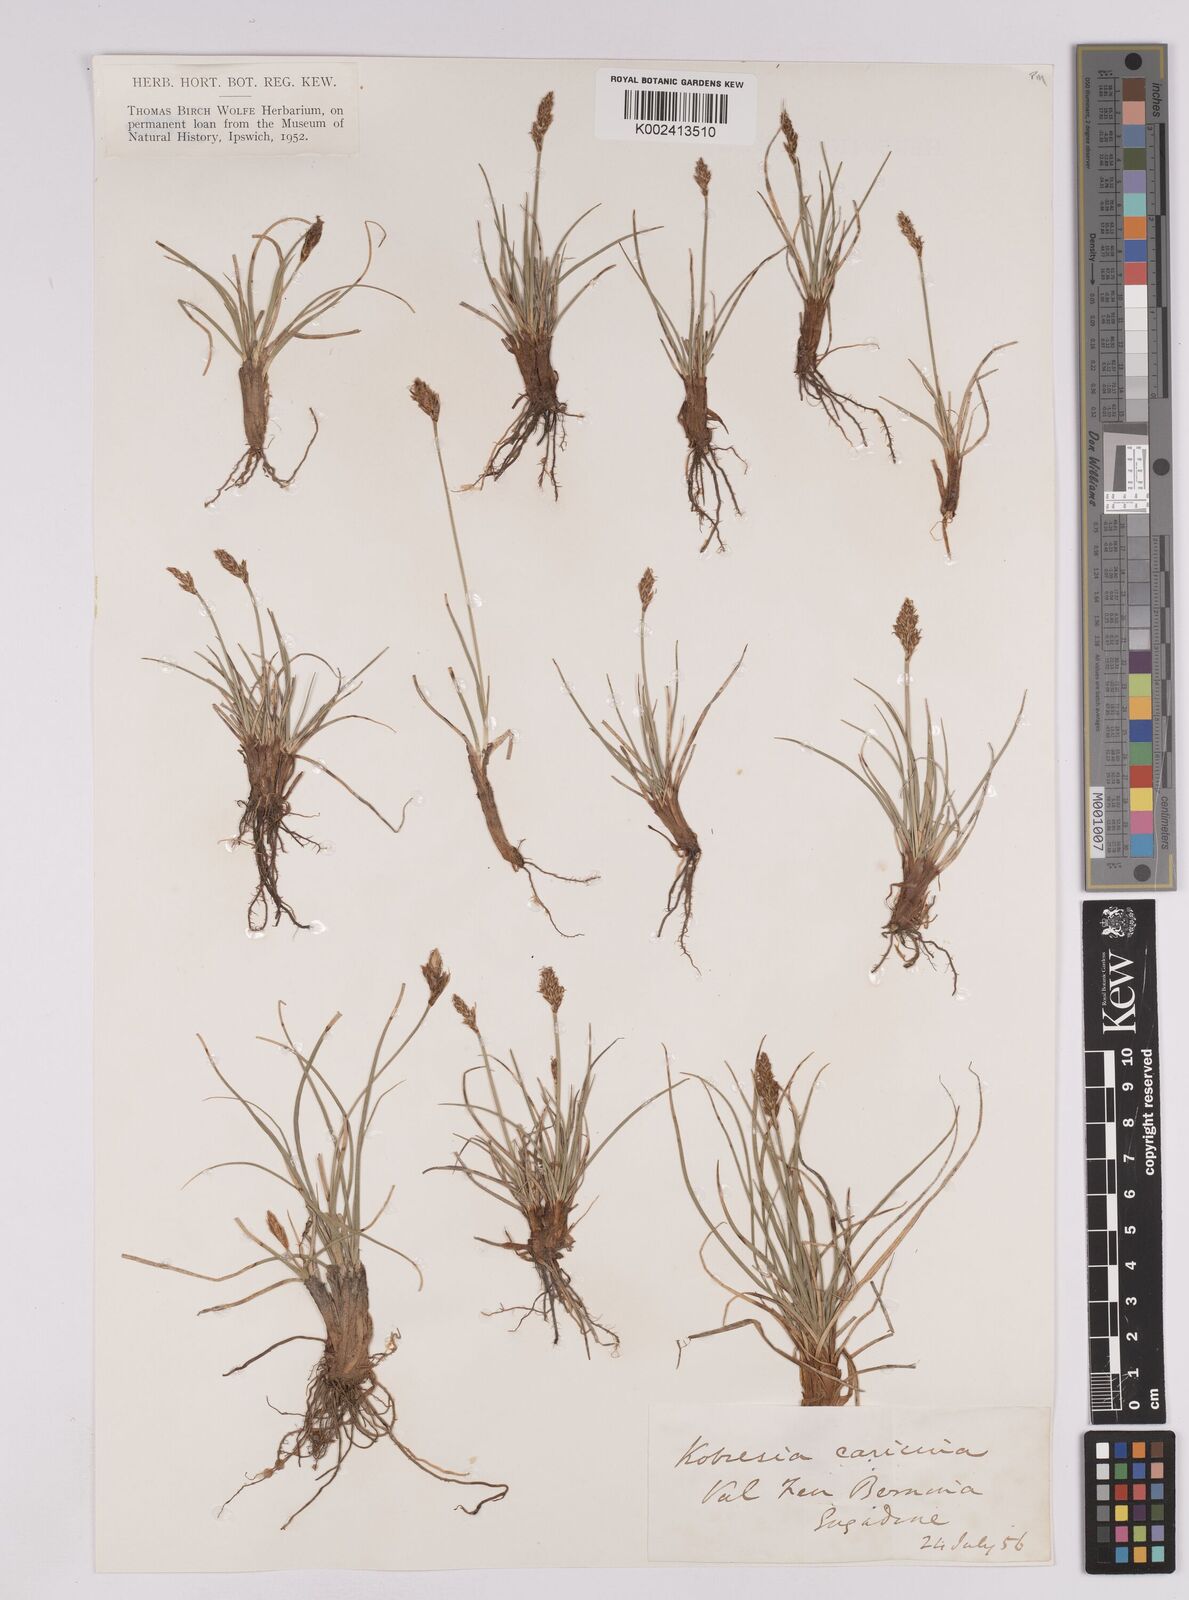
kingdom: Plantae
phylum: Tracheophyta
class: Liliopsida
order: Poales
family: Cyperaceae
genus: Carex
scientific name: Carex simpliciuscula
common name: Simple bog sedge
